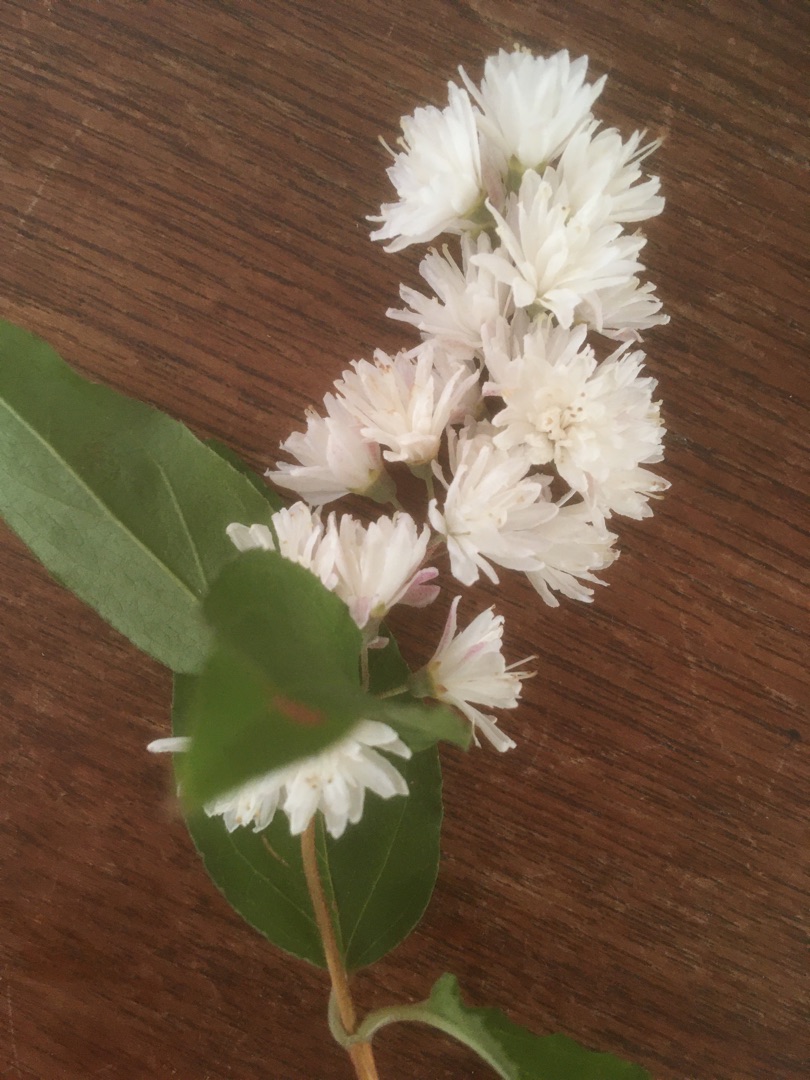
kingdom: Plantae
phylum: Tracheophyta
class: Magnoliopsida
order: Cornales
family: Hydrangeaceae
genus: Deutzia
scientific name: Deutzia crenata
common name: Stor stjernetop
